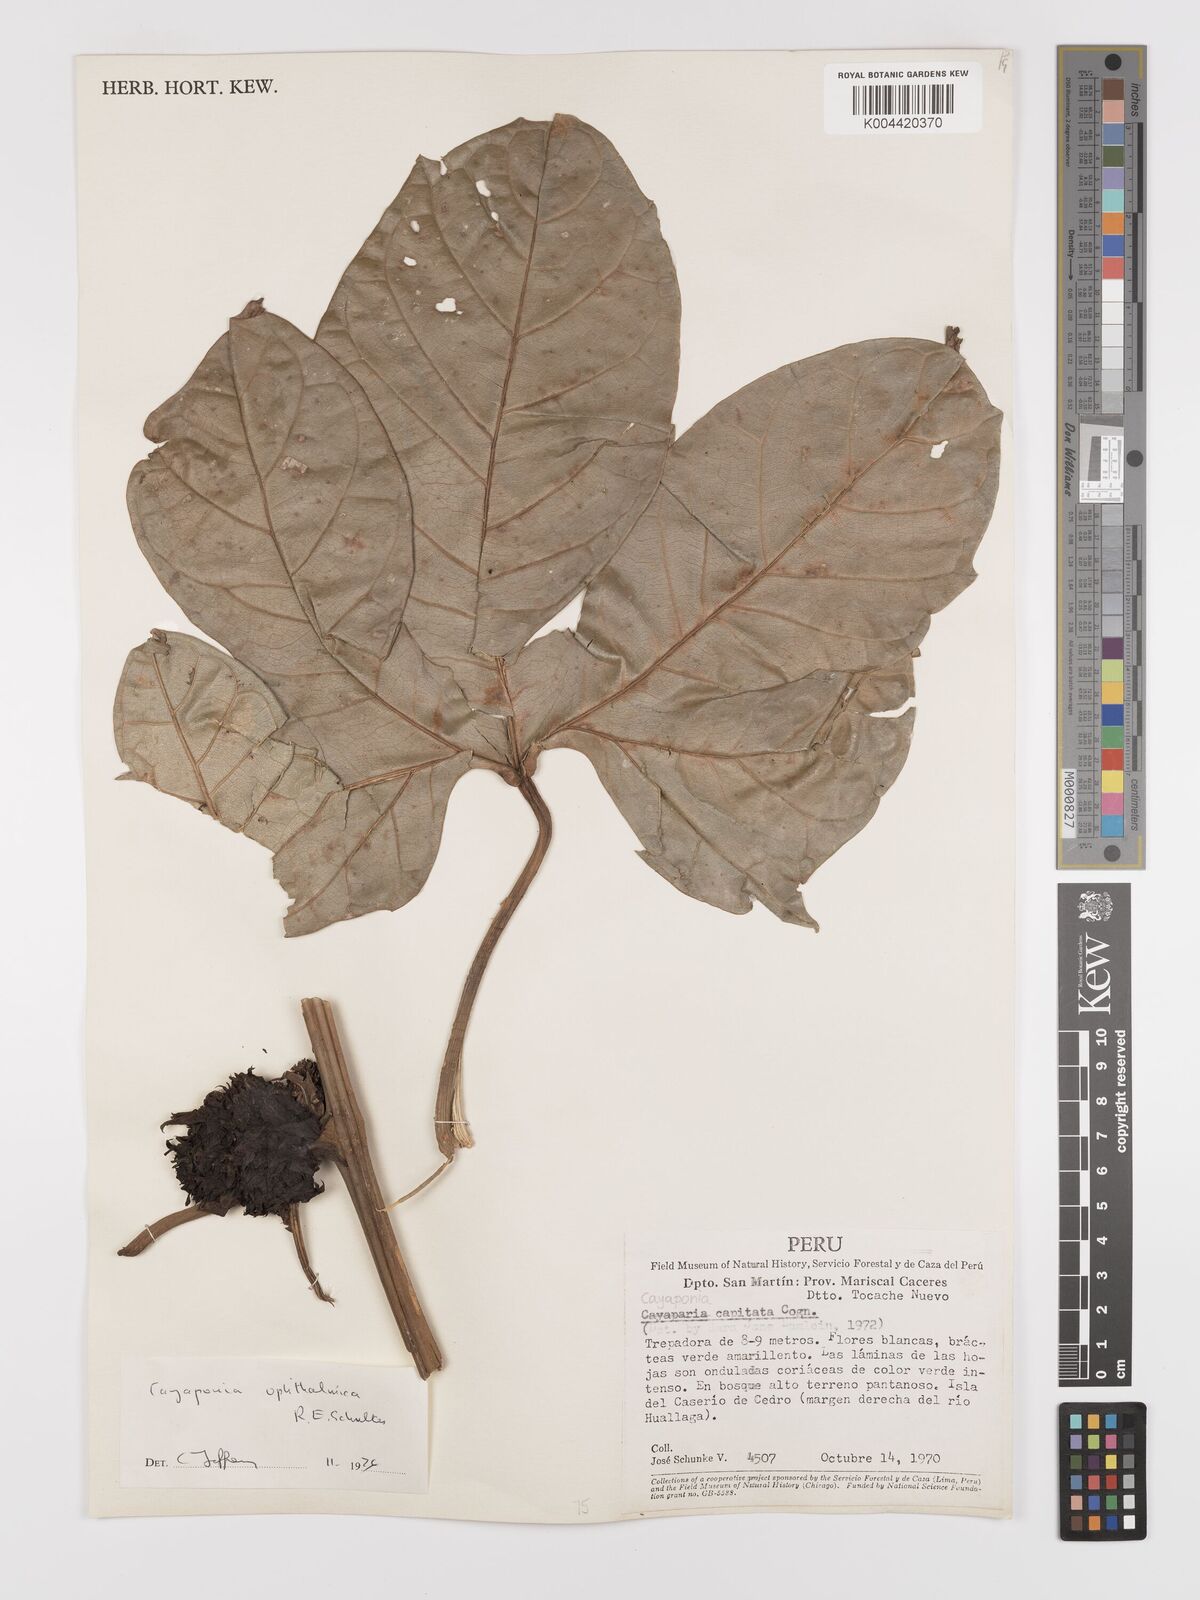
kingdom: Plantae
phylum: Tracheophyta
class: Magnoliopsida
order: Cucurbitales
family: Cucurbitaceae
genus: Cayaponia
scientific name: Cayaponia ophthalmica
